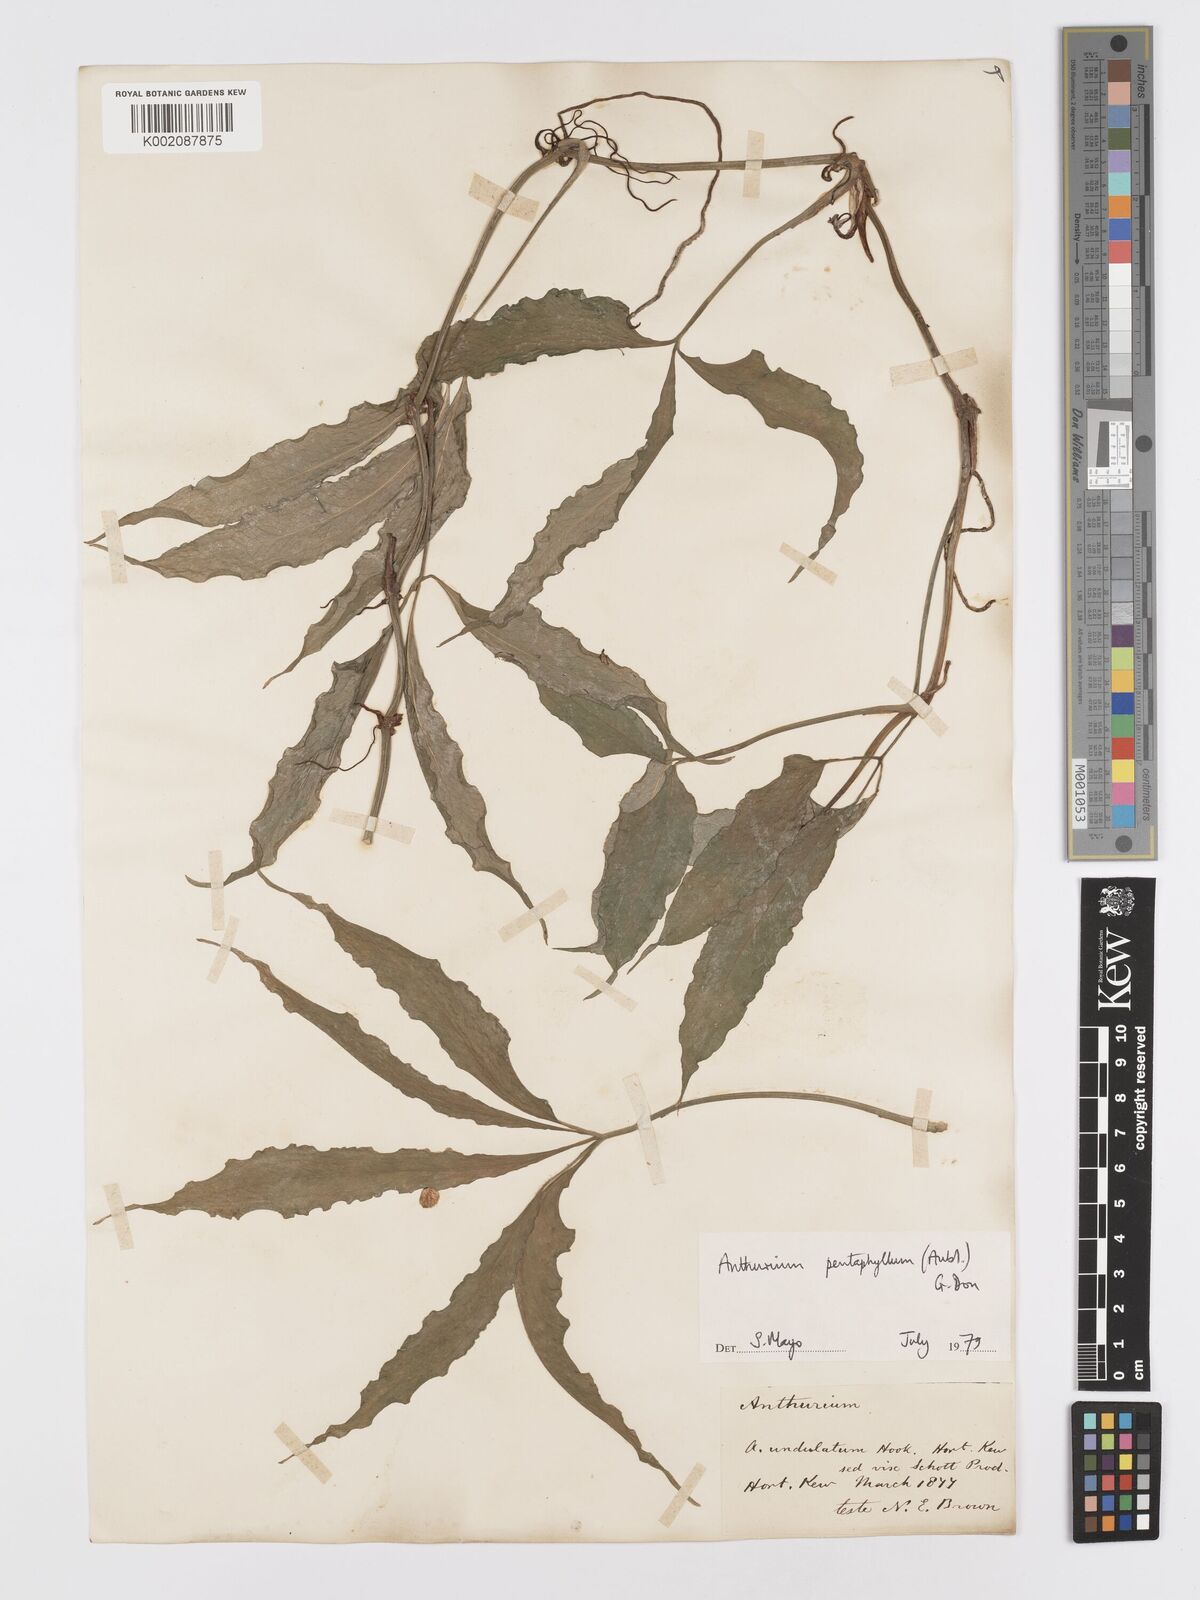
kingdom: Plantae
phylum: Tracheophyta
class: Liliopsida
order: Alismatales
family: Araceae
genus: Anthurium
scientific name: Anthurium pentaphyllum
